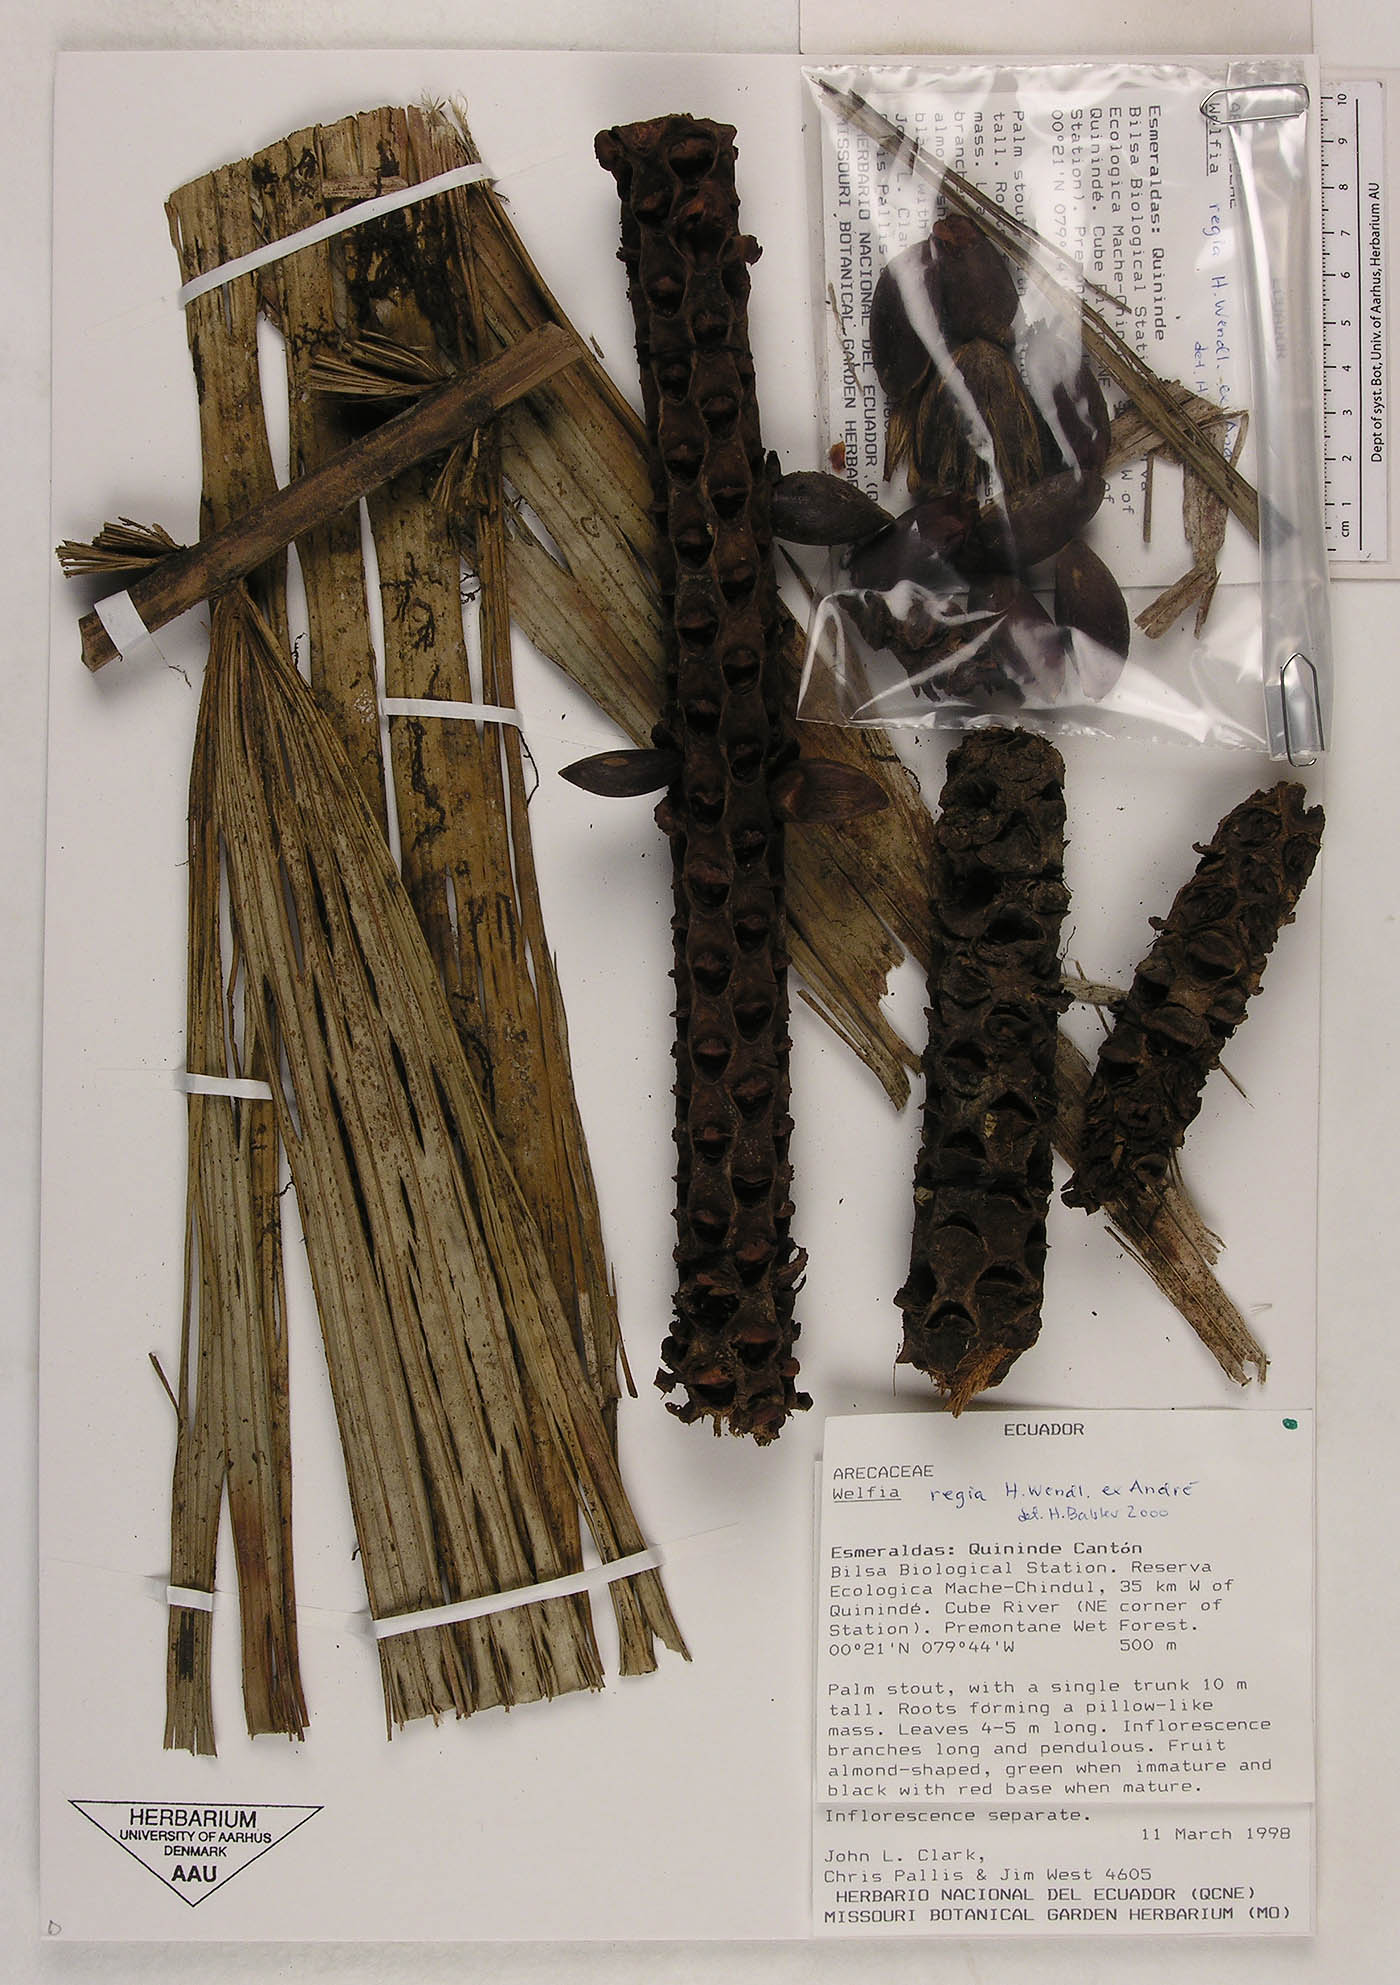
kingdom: Plantae
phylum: Tracheophyta
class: Liliopsida
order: Arecales
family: Arecaceae
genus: Welfia
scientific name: Welfia regia
